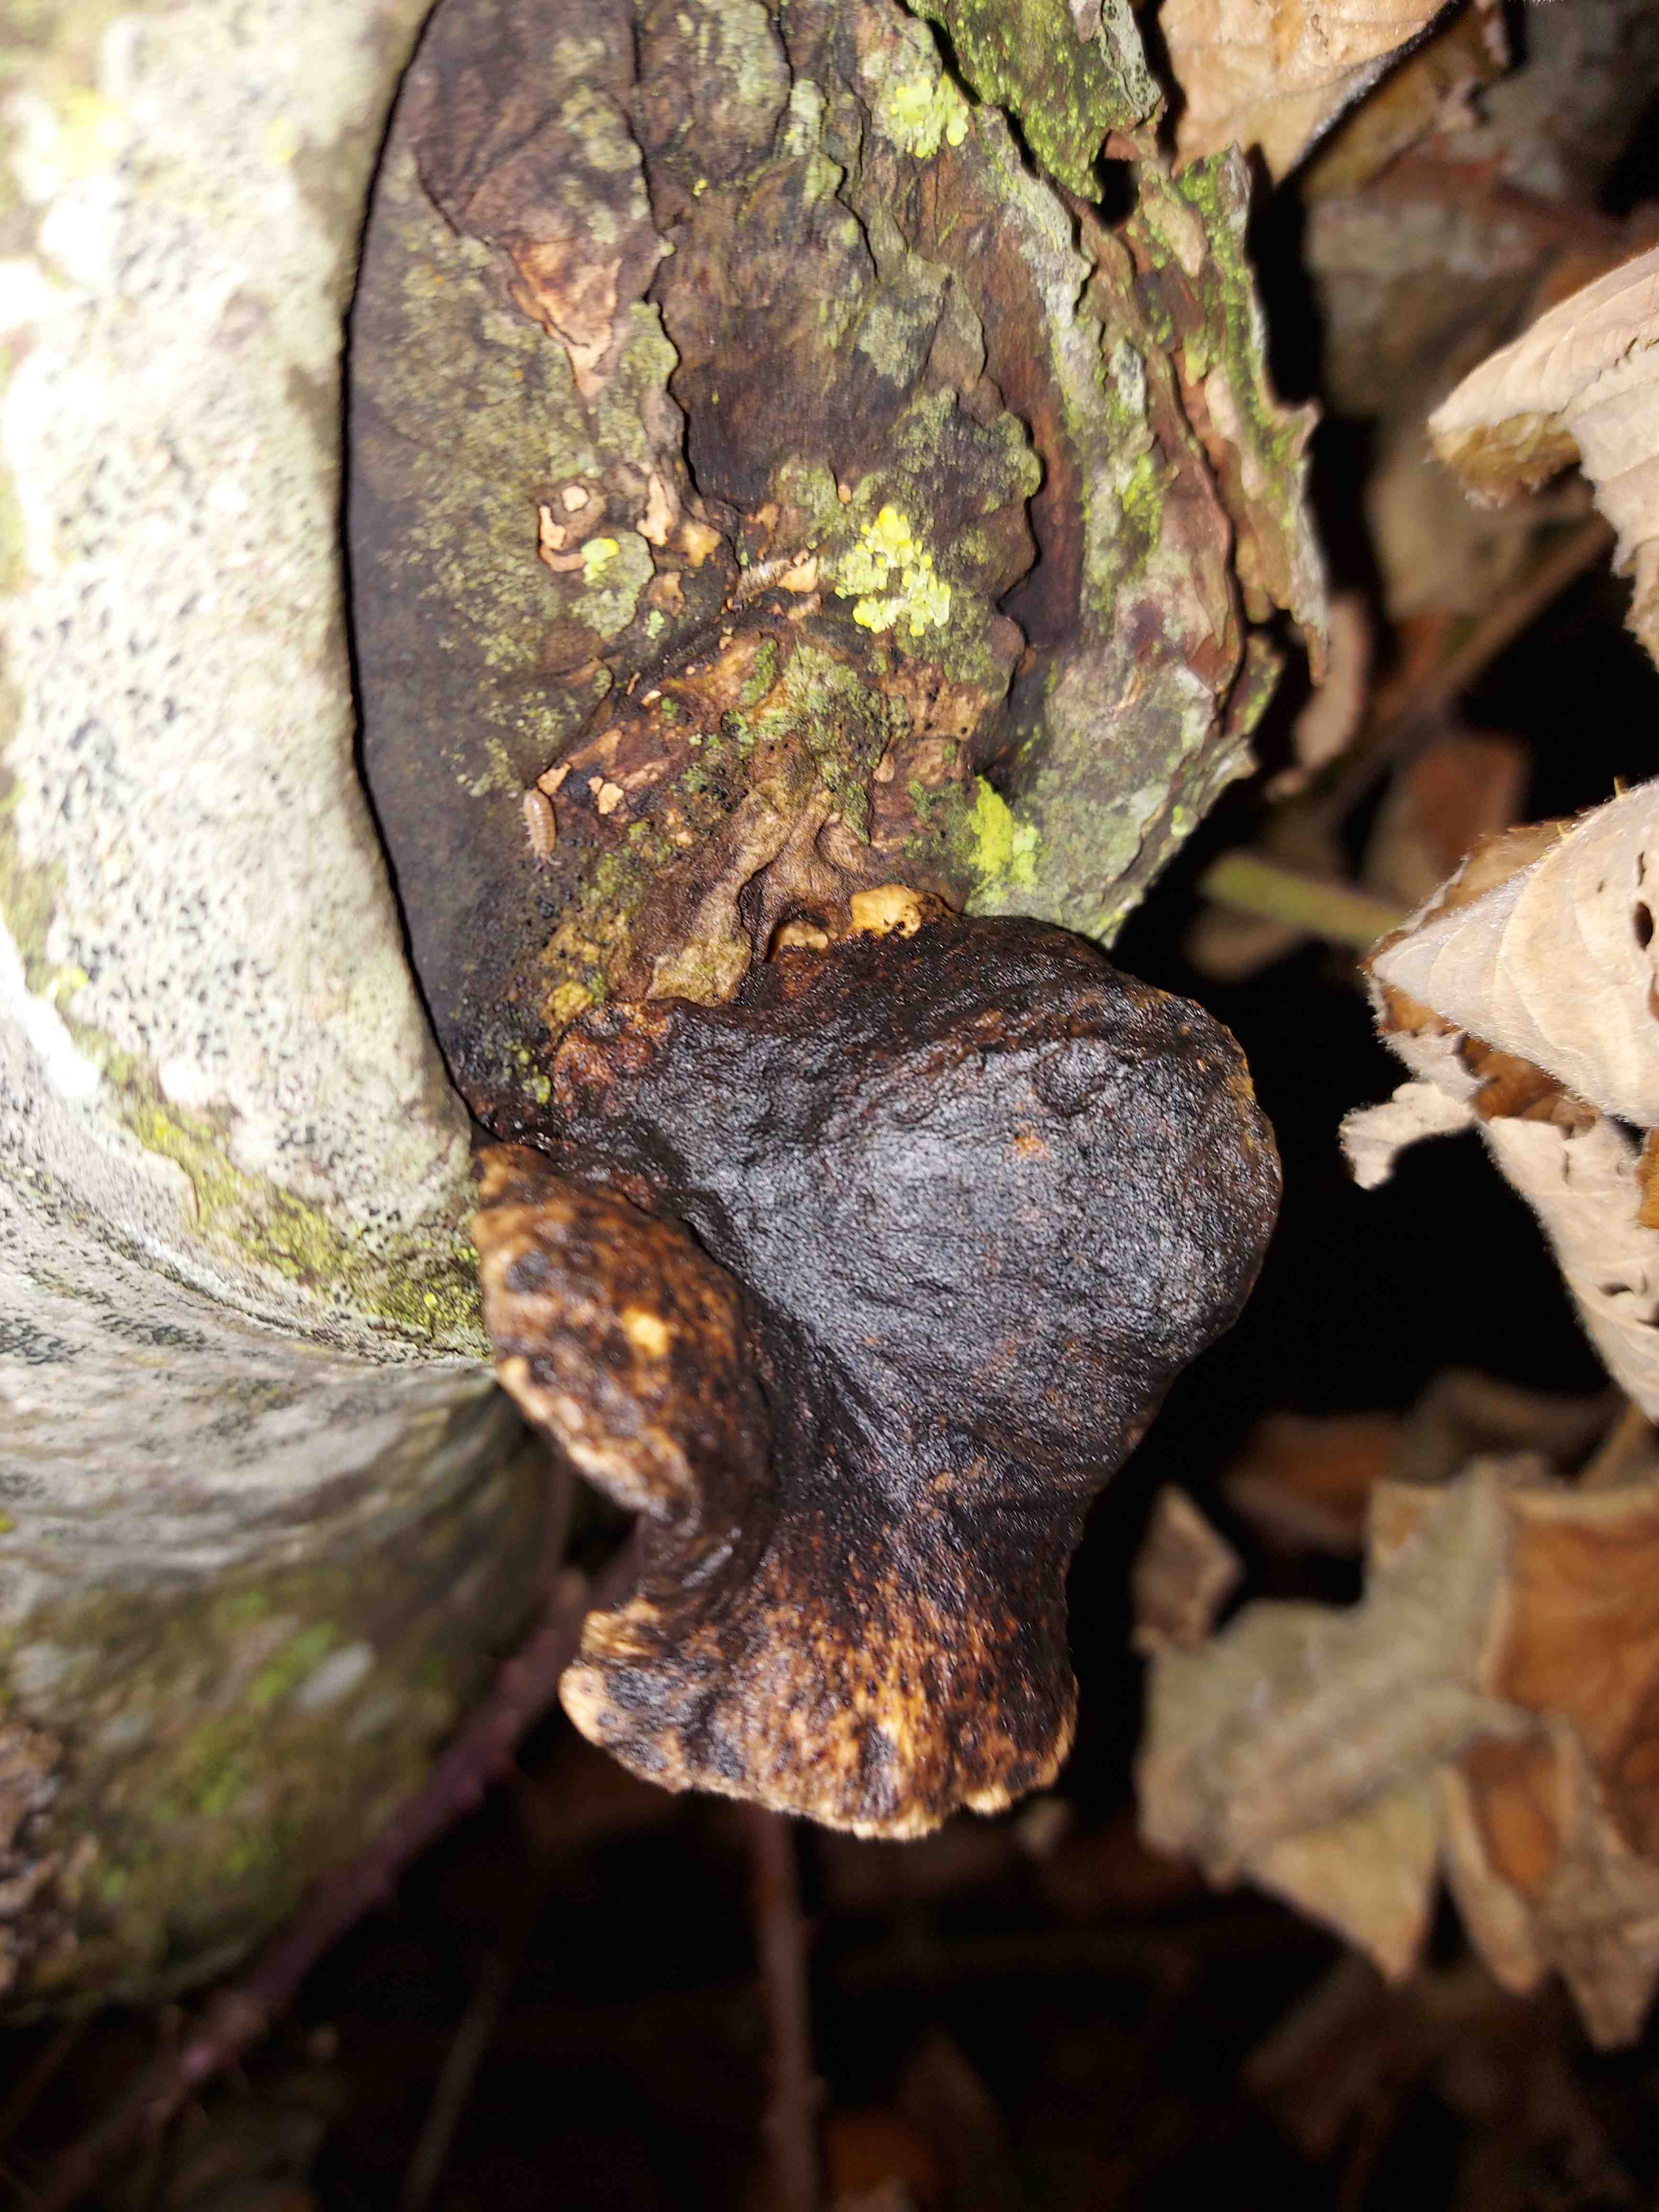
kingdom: Fungi
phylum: Basidiomycota
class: Agaricomycetes
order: Polyporales
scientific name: Polyporales
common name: poresvampordenen
